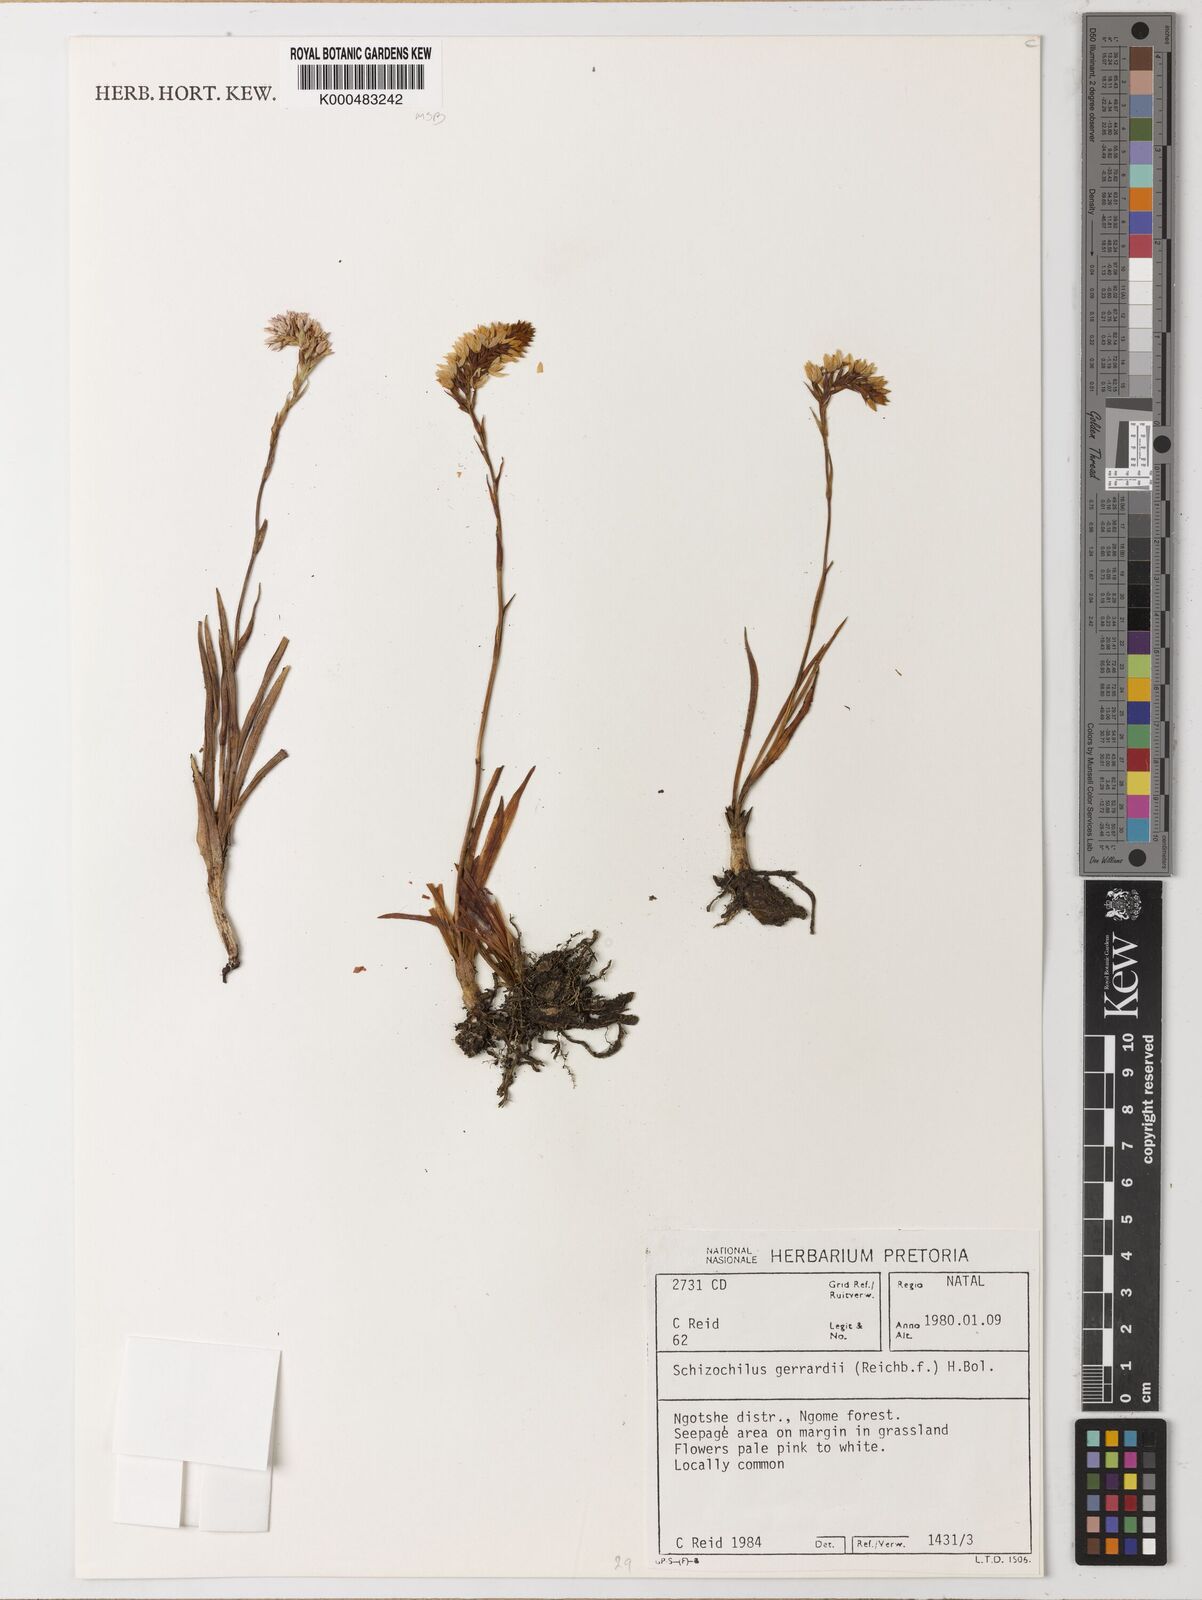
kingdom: Plantae
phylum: Tracheophyta
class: Liliopsida
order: Asparagales
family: Orchidaceae
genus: Schizochilus
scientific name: Schizochilus gerrardii
